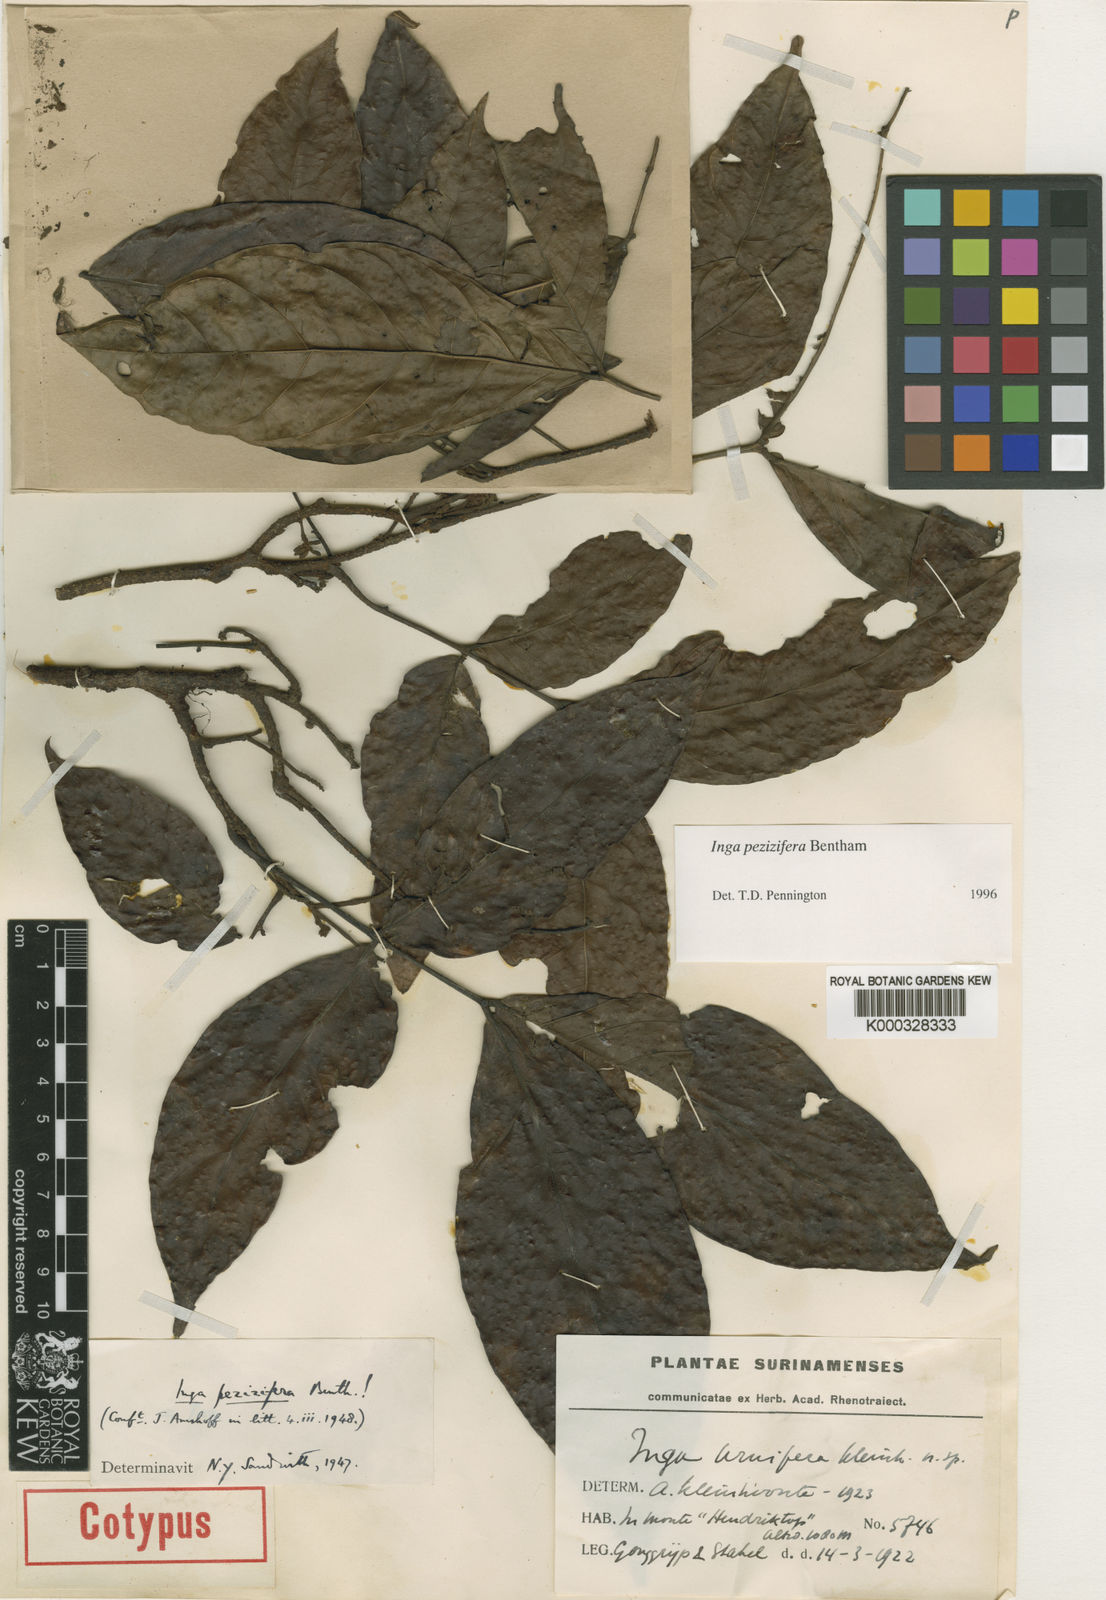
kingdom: Plantae
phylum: Tracheophyta
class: Magnoliopsida
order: Fabales
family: Fabaceae
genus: Inga
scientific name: Inga pezizifera
